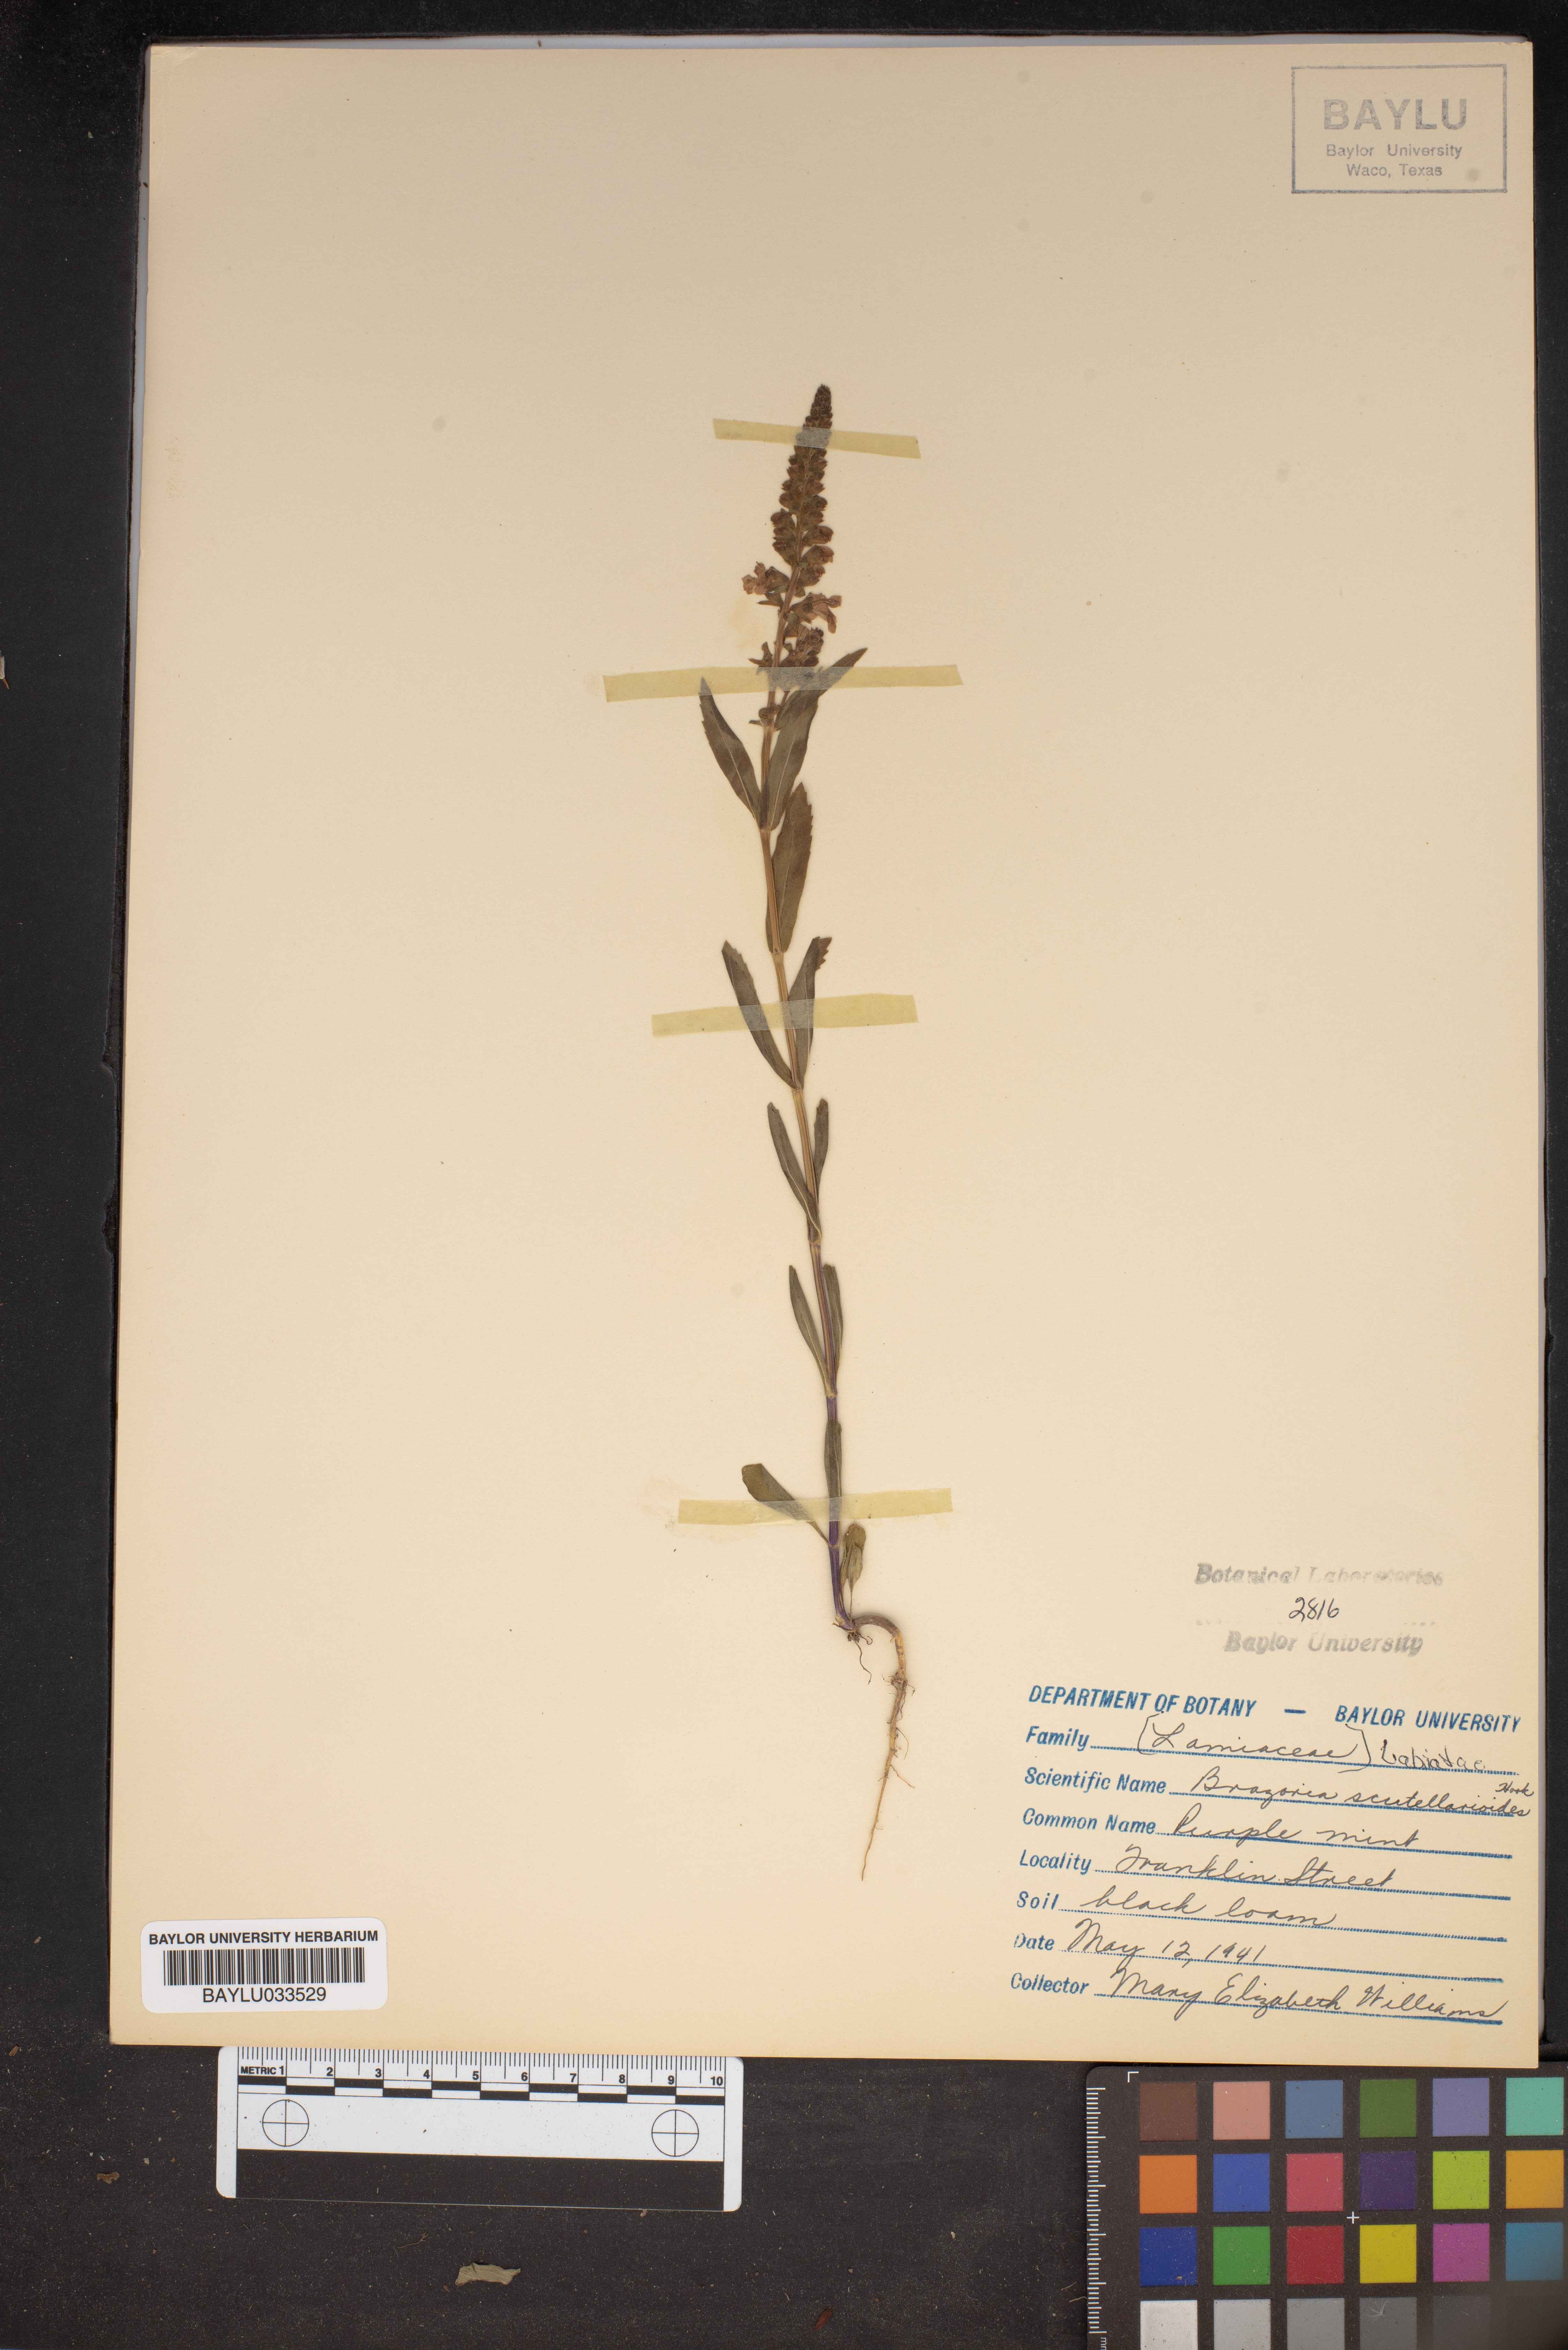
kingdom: Plantae
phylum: Tracheophyta
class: Magnoliopsida
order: Lamiales
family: Lamiaceae
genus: Warnockia
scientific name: Warnockia scutellarioides
